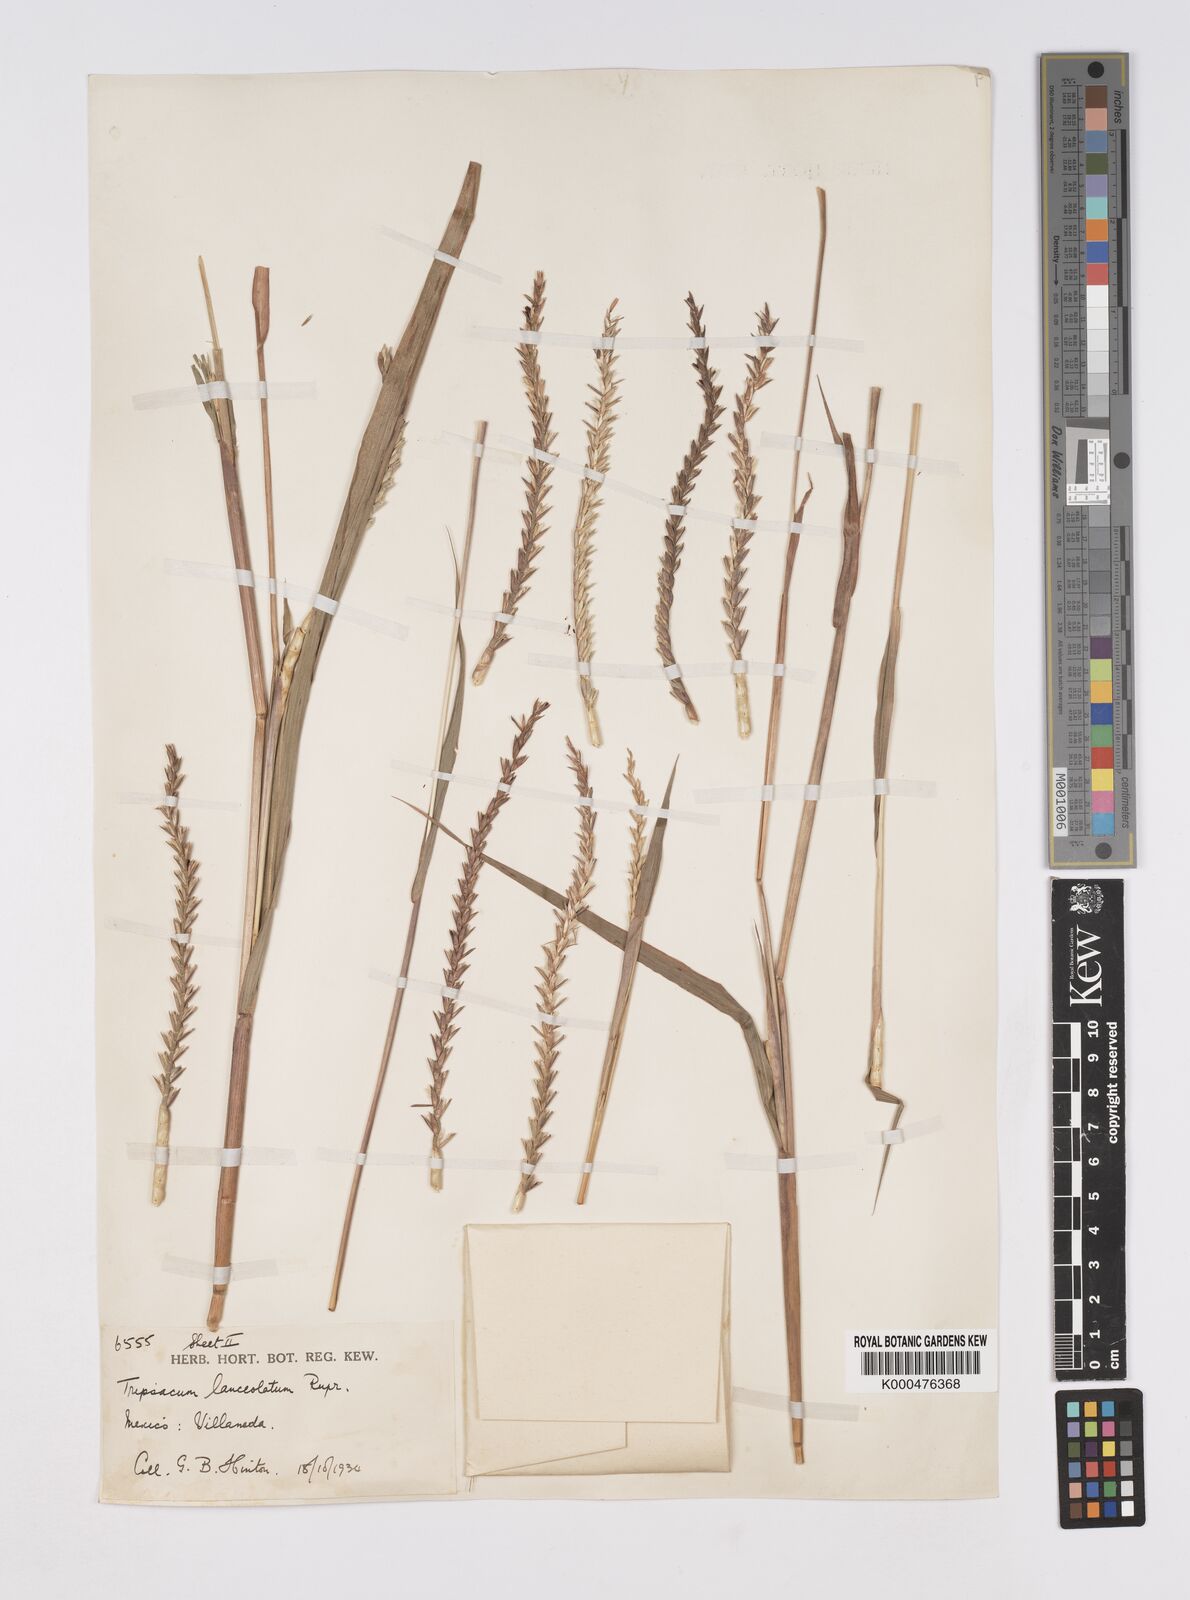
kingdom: Plantae
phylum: Tracheophyta
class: Liliopsida
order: Poales
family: Poaceae
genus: Tripsacum
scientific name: Tripsacum australe
